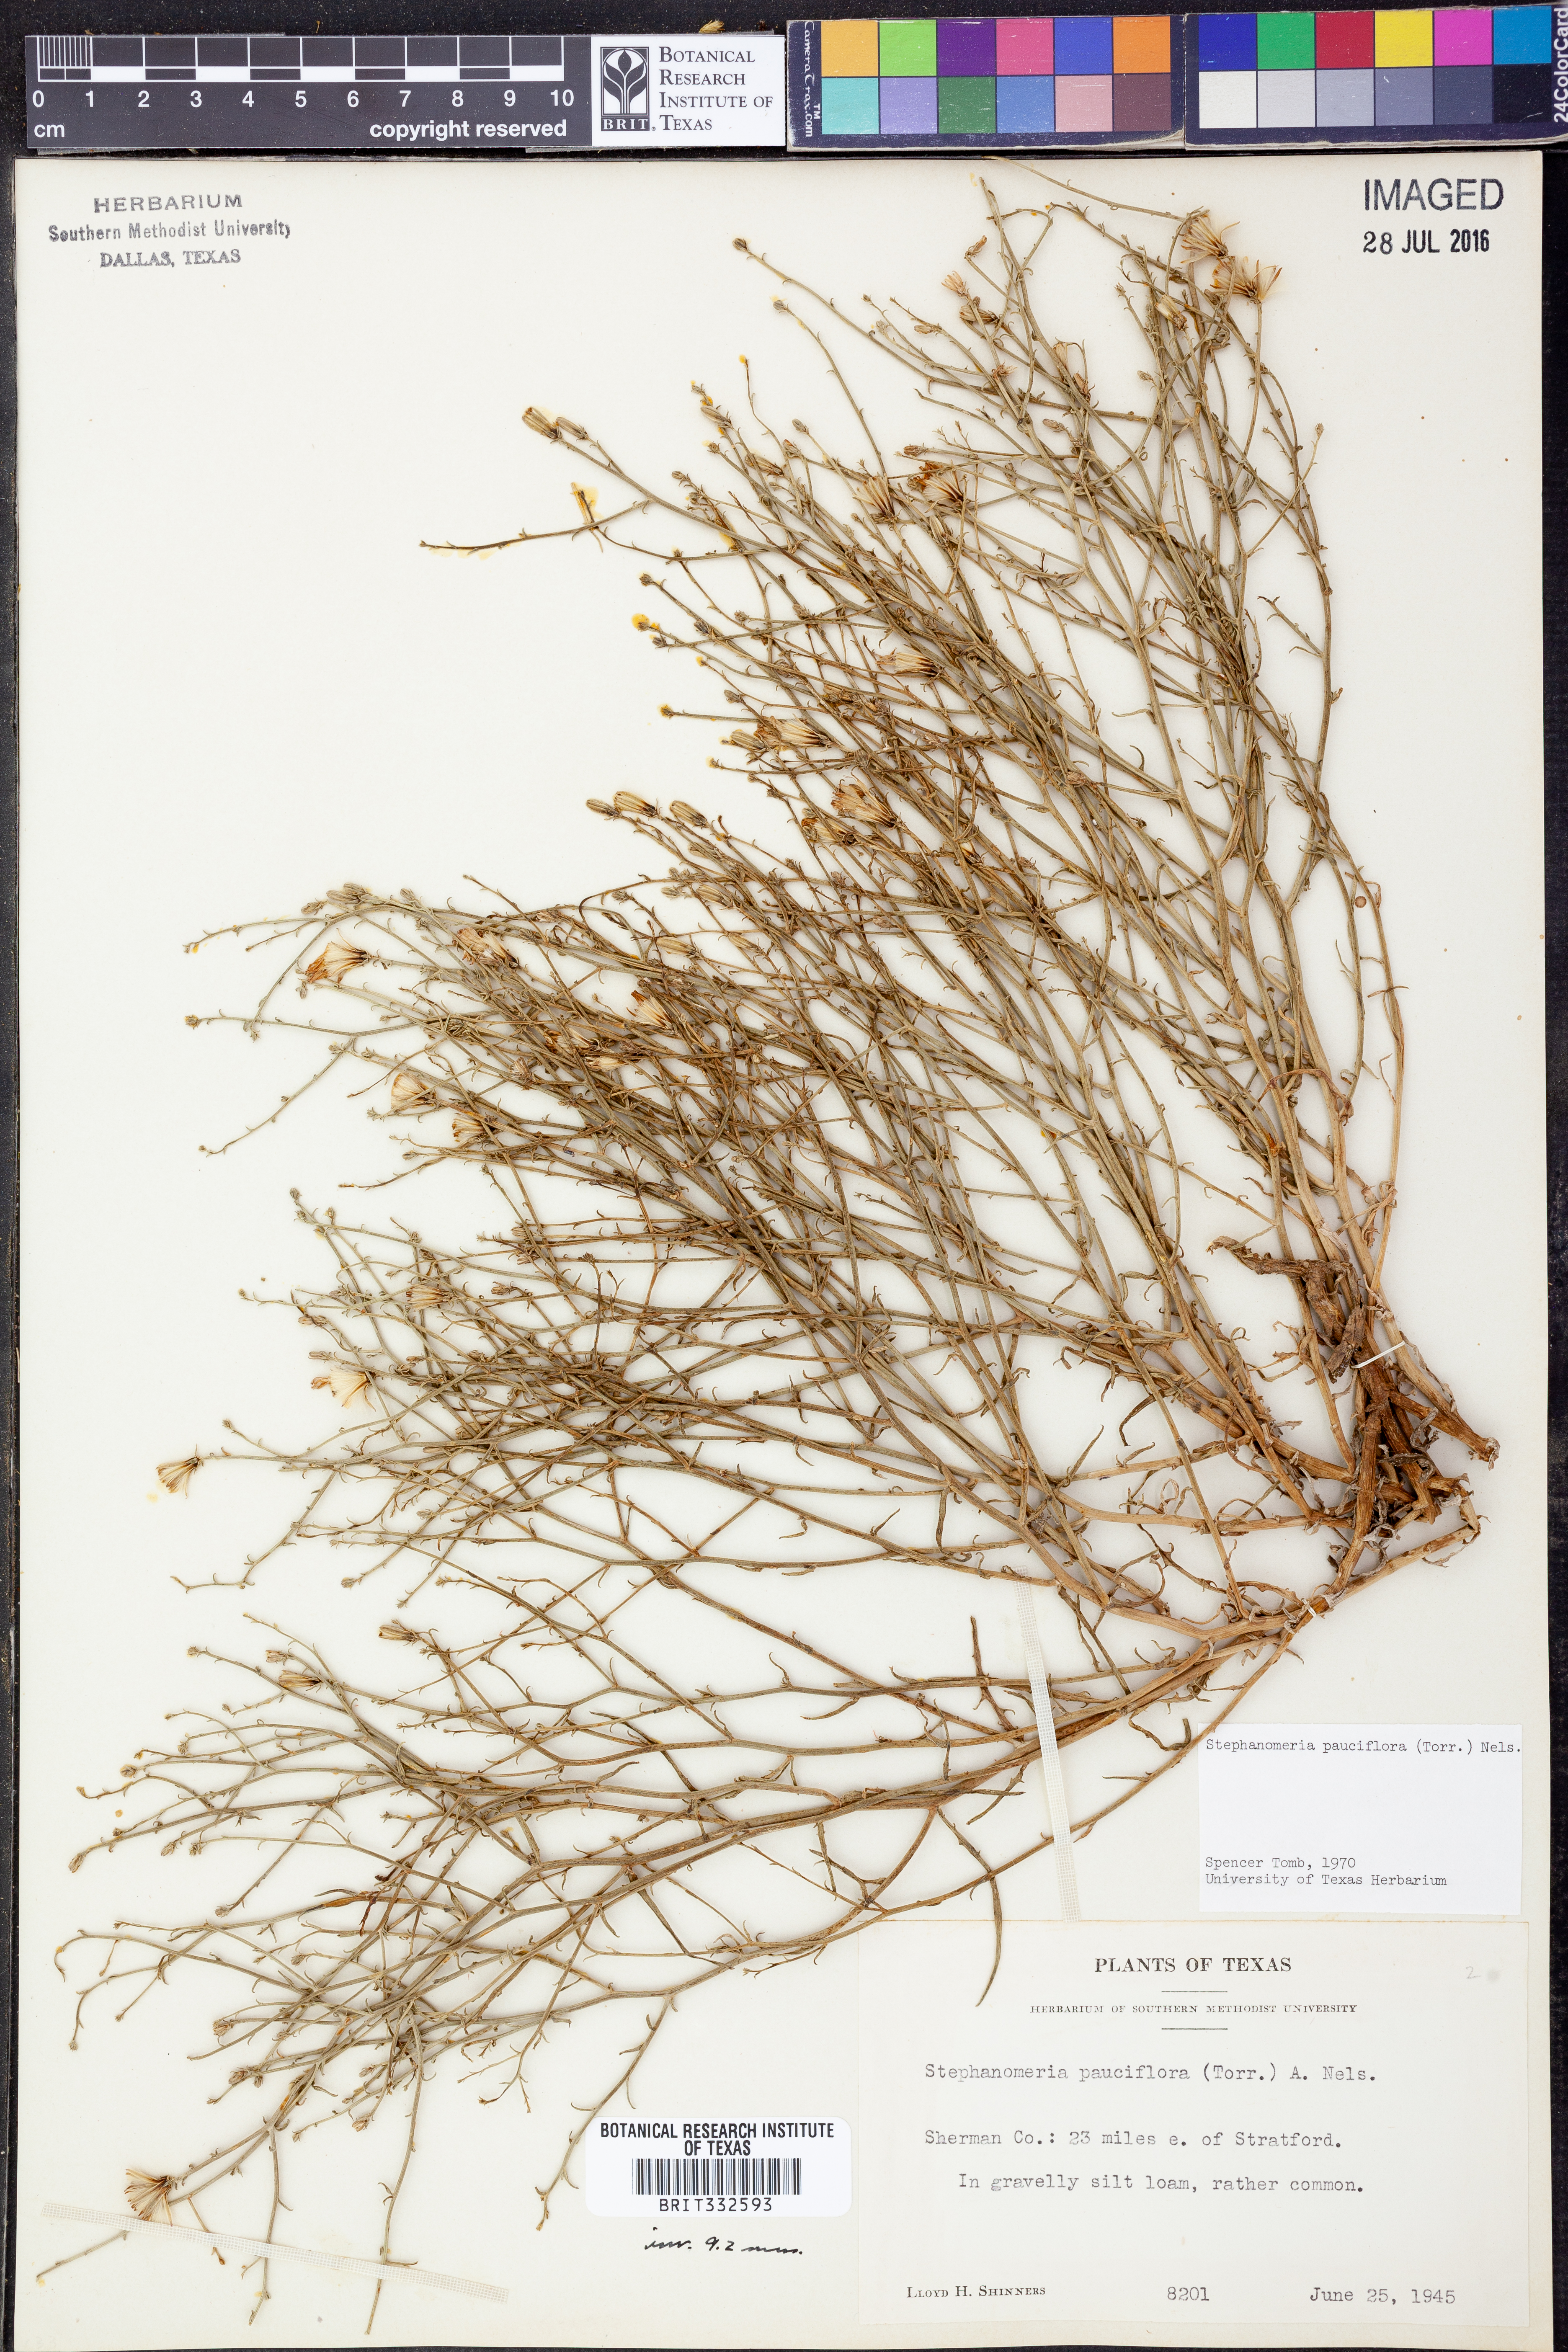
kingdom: Plantae
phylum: Tracheophyta
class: Magnoliopsida
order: Asterales
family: Asteraceae
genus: Stephanomeria
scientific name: Stephanomeria pauciflora
